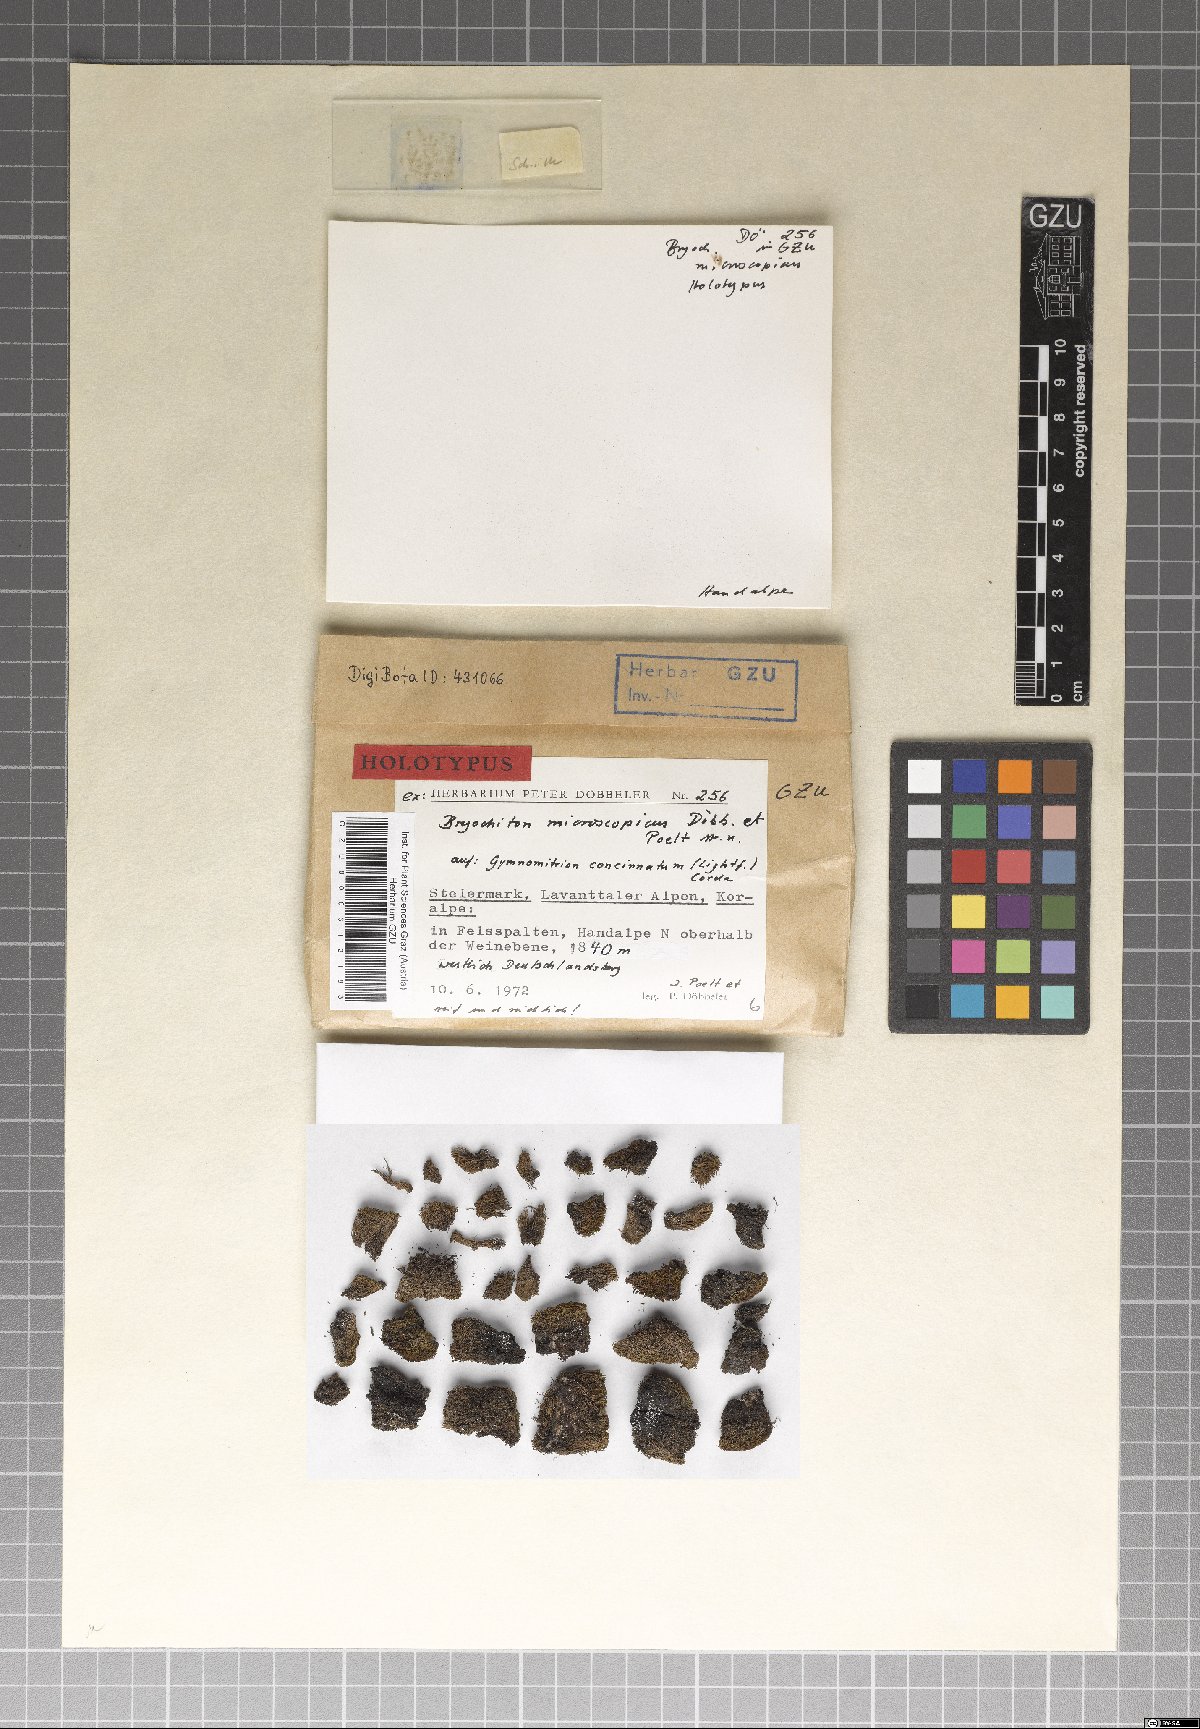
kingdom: Fungi
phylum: Ascomycota
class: Dothideomycetes
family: Pseudoperisporiaceae
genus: Bryochiton
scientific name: Bryochiton microscopicus
